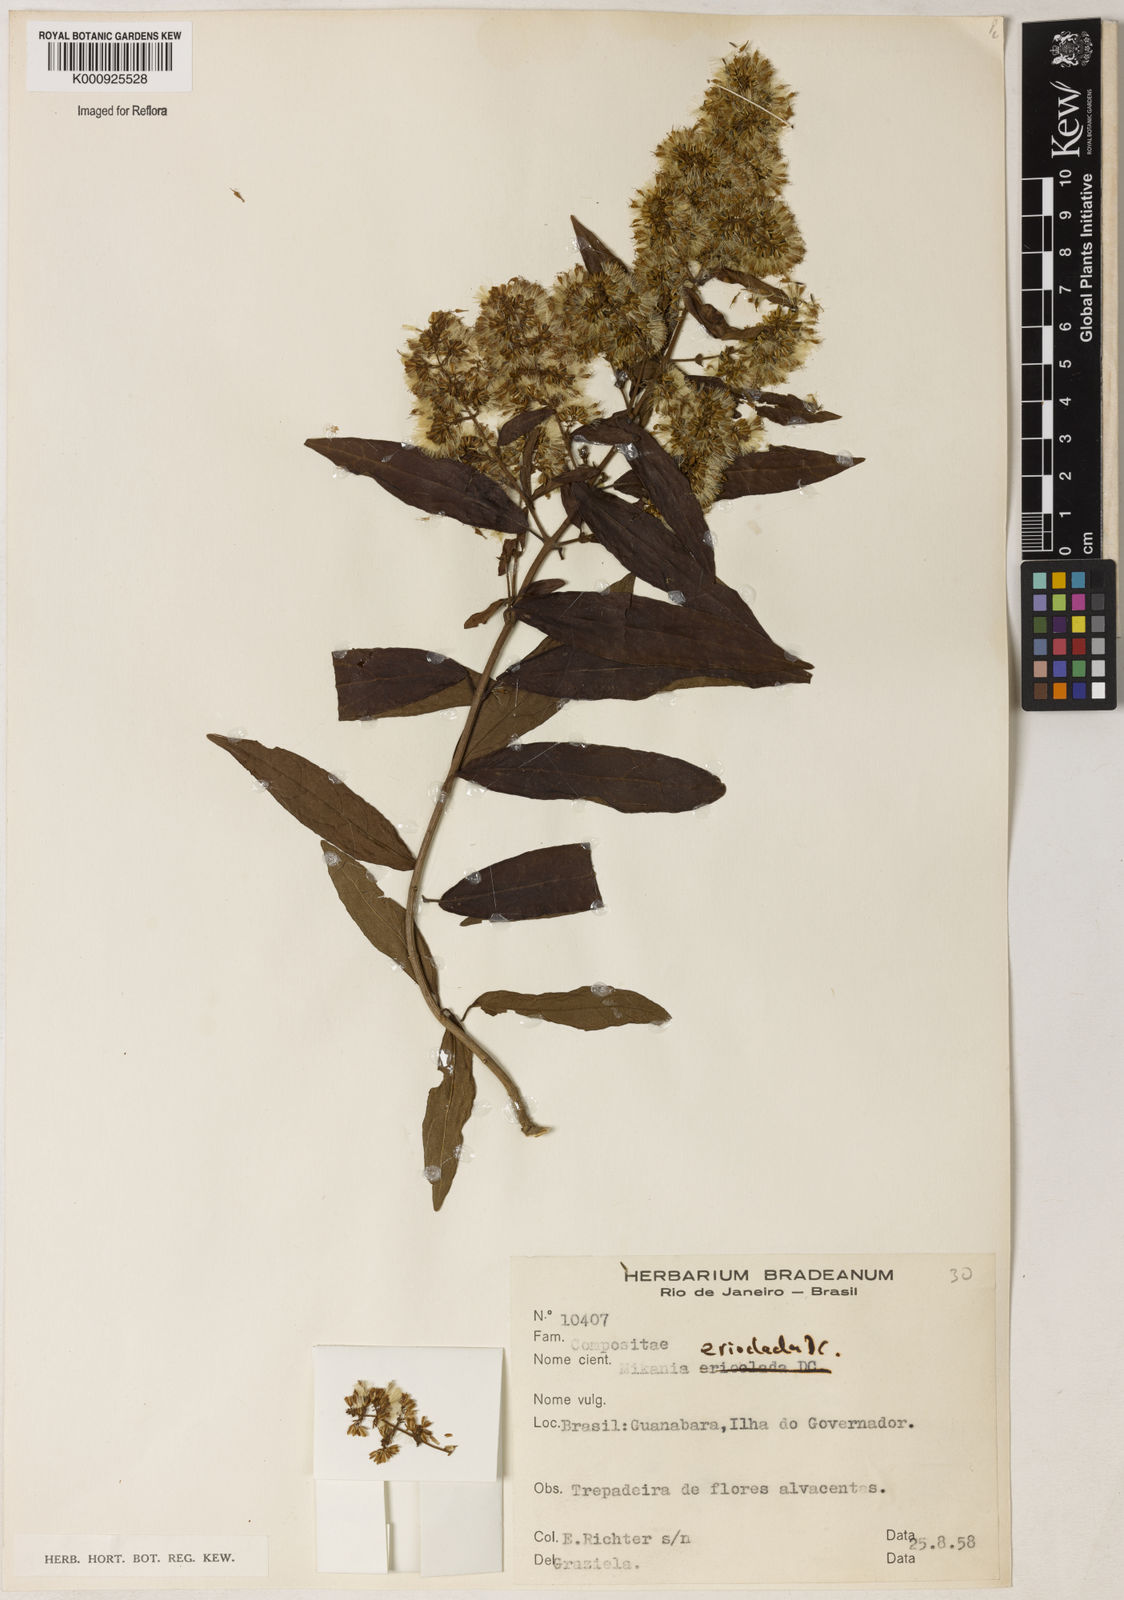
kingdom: Plantae
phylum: Tracheophyta
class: Magnoliopsida
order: Asterales
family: Asteraceae
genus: Mikania
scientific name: Mikania erioclada
